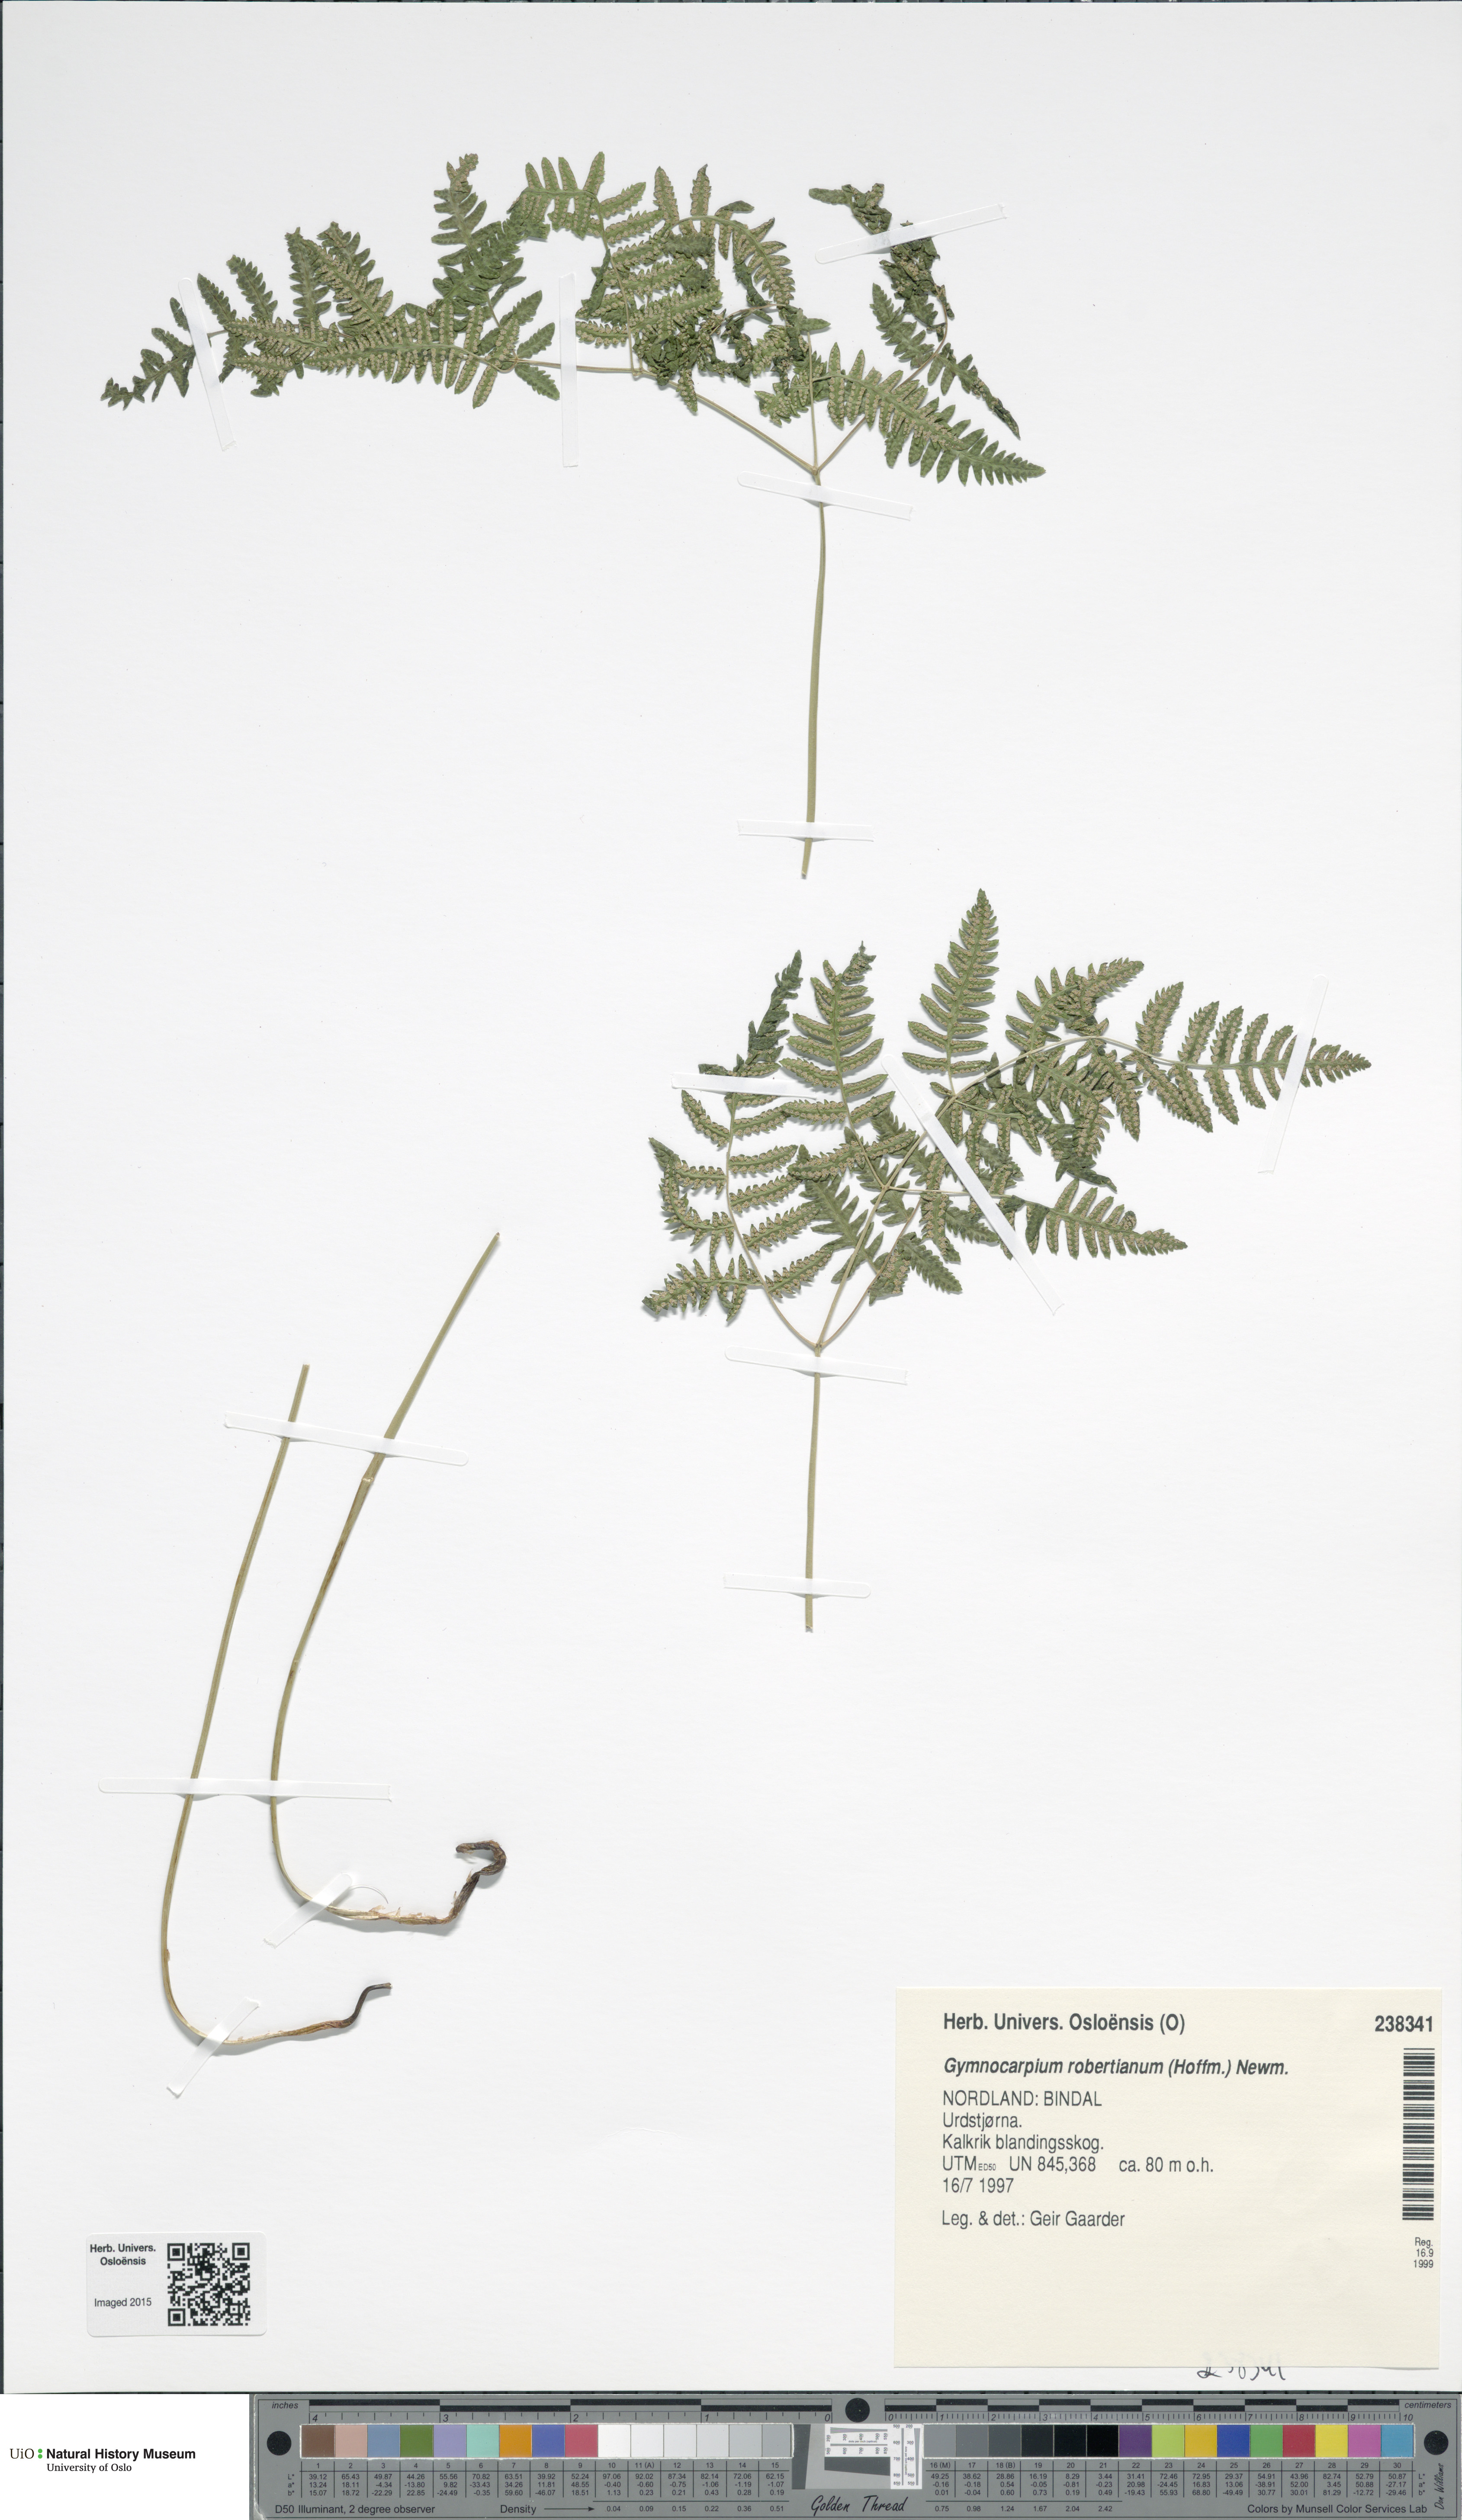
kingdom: Plantae
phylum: Tracheophyta
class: Polypodiopsida
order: Polypodiales
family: Cystopteridaceae
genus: Gymnocarpium
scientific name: Gymnocarpium robertianum
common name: Limestone fern
